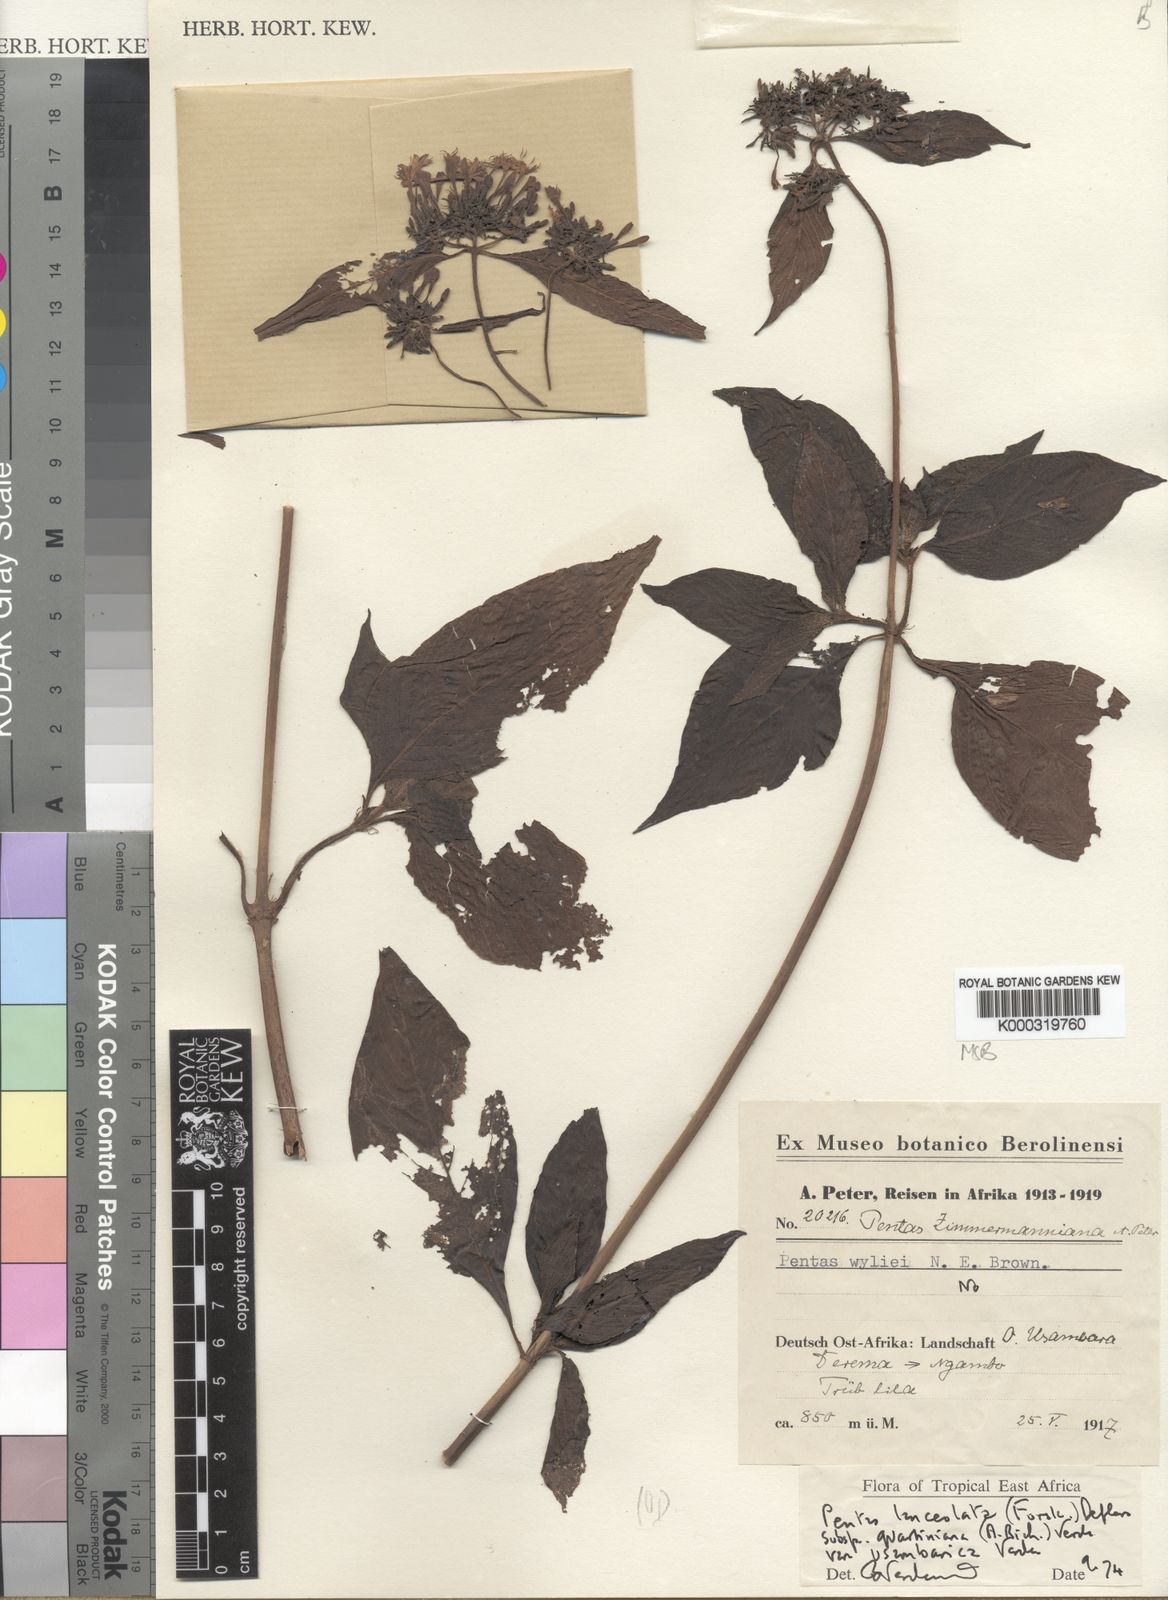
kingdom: Plantae
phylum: Tracheophyta
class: Magnoliopsida
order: Gentianales
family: Rubiaceae
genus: Pentas
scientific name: Pentas lanceolata
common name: Egyptian starcluster
